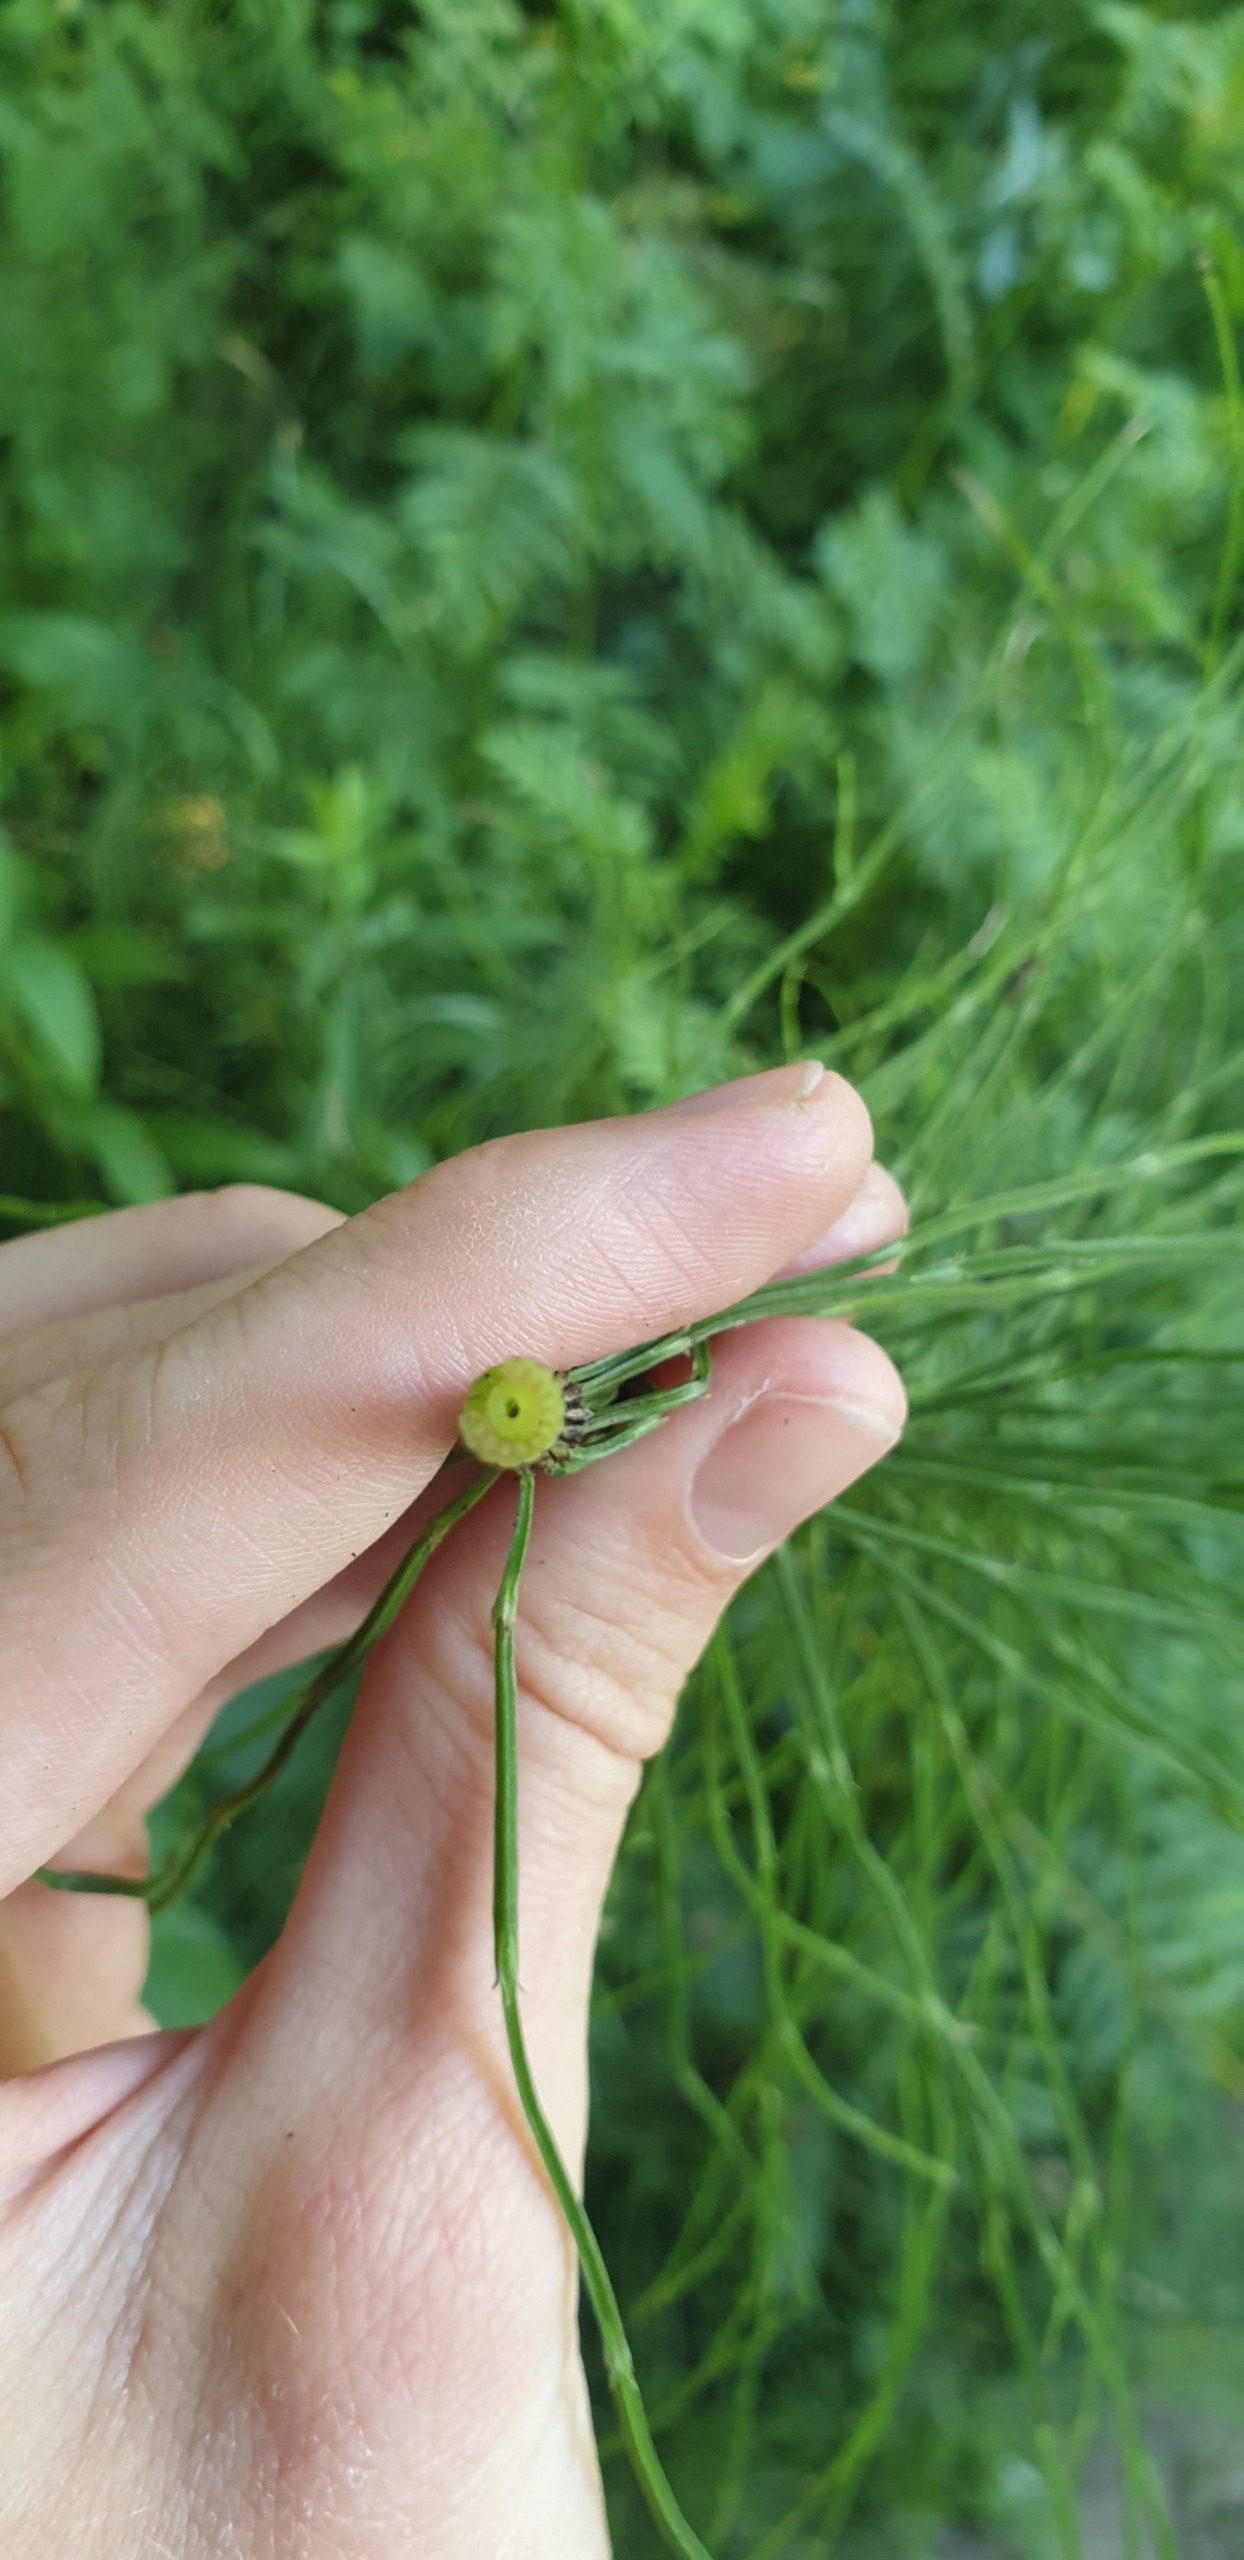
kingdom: Plantae
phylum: Tracheophyta
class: Polypodiopsida
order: Equisetales
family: Equisetaceae
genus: Equisetum
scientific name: Equisetum arvense
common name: Ager-padderok
